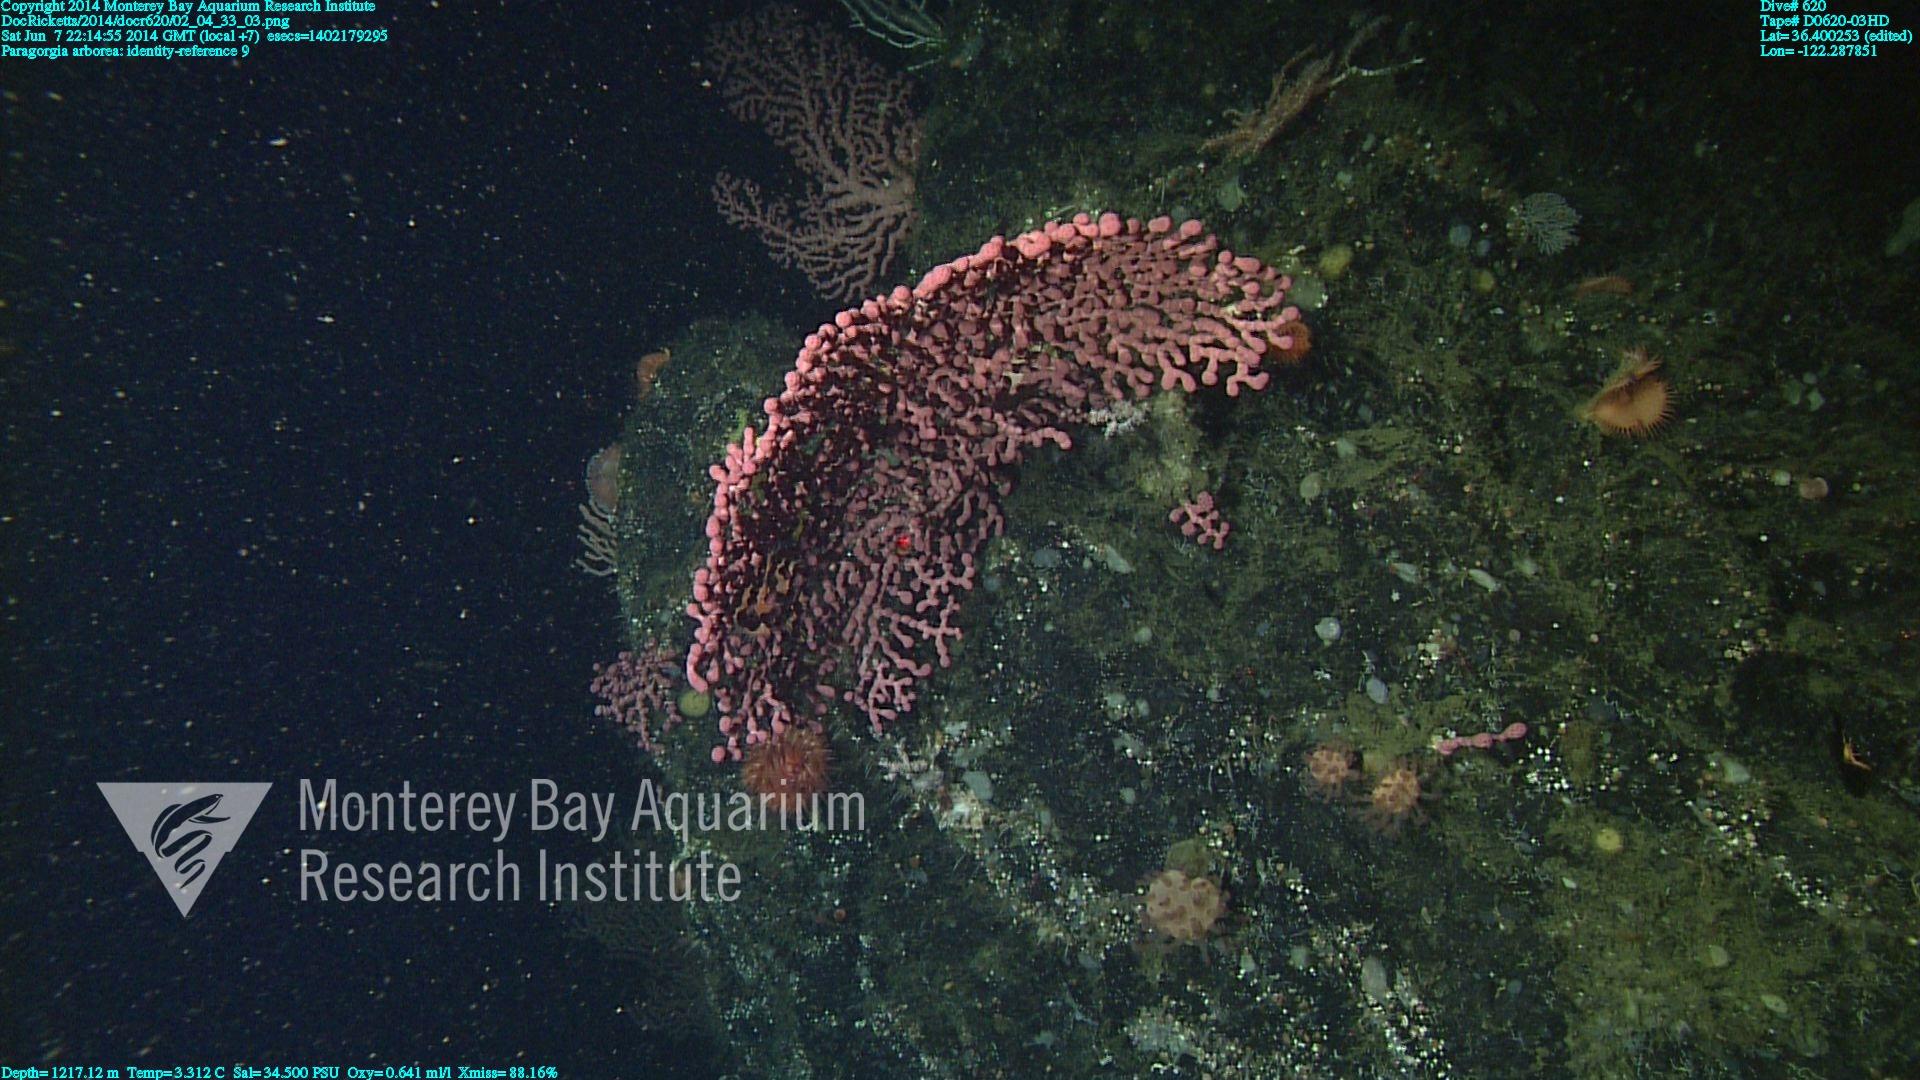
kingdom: Animalia
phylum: Cnidaria
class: Anthozoa
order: Scleralcyonacea
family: Coralliidae
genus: Paragorgia
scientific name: Paragorgia arborea
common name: Bubble gum coral
